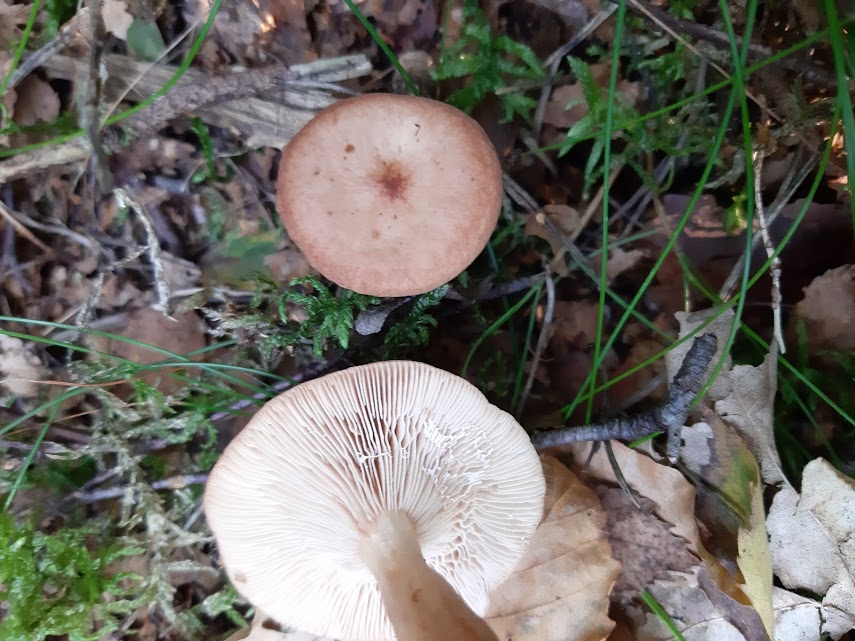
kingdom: Fungi
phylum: Basidiomycota
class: Agaricomycetes
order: Russulales
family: Russulaceae
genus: Lactarius
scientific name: Lactarius
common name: mælkehat
